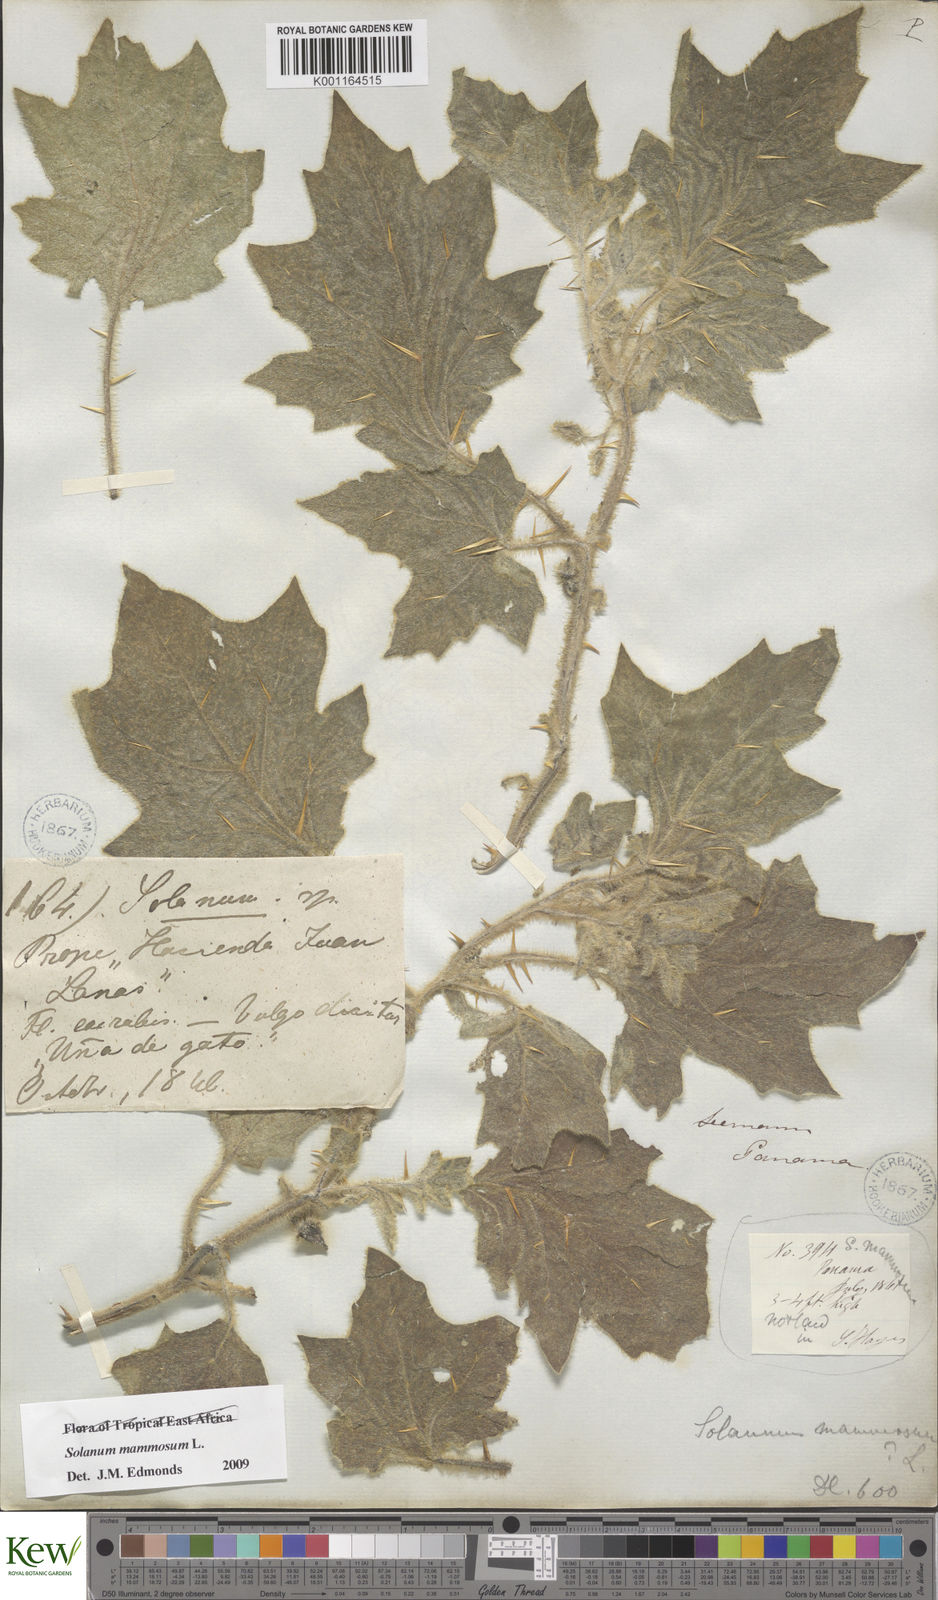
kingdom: Plantae
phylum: Tracheophyta
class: Magnoliopsida
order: Solanales
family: Solanaceae
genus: Solanum
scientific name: Solanum mammosum
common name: Nipple fruit
